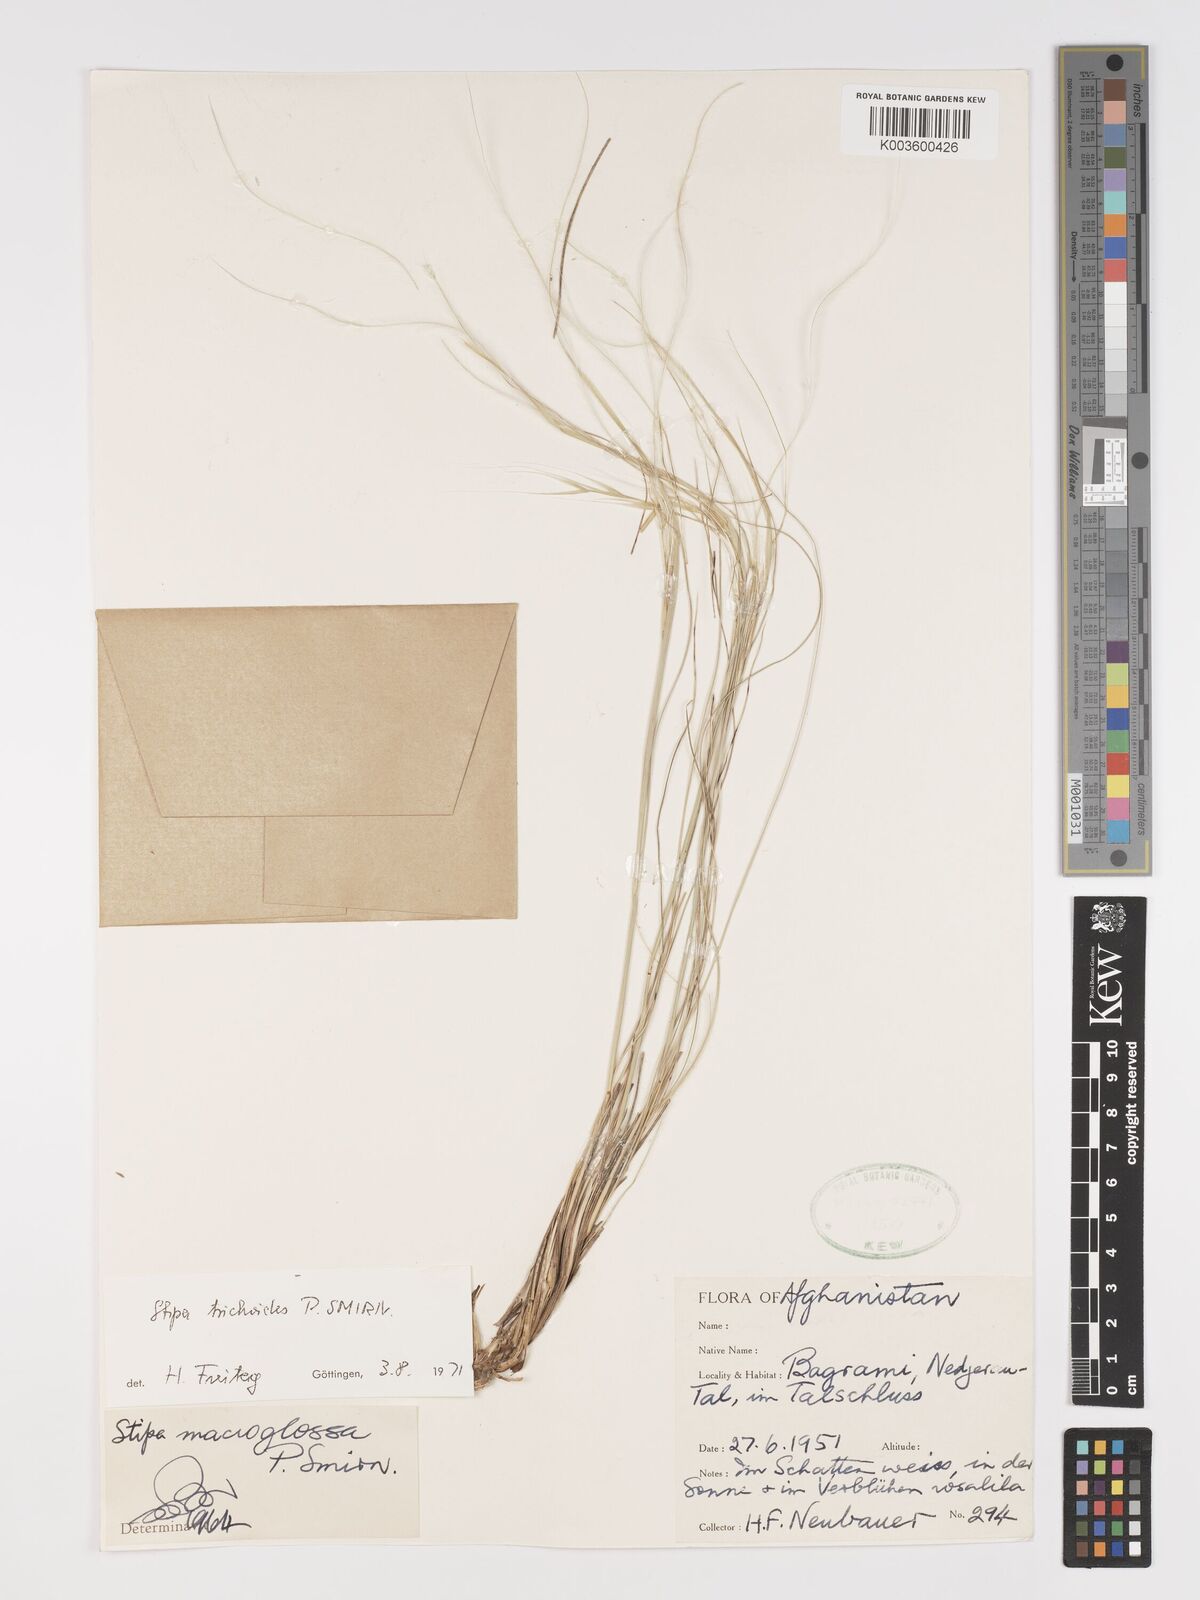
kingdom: Plantae
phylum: Tracheophyta
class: Liliopsida
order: Poales
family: Poaceae
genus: Stipa
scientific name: Stipa turkestanica
